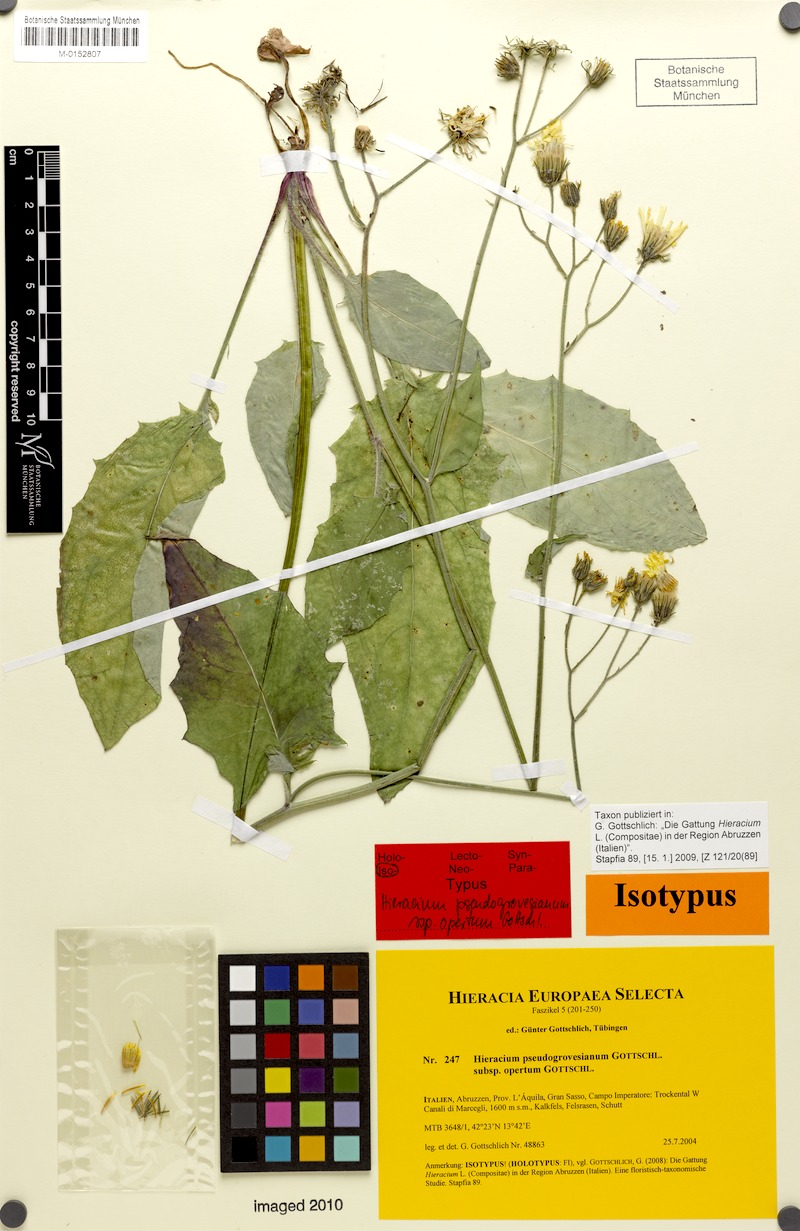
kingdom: Plantae
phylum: Tracheophyta
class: Magnoliopsida
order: Asterales
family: Asteraceae
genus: Hieracium
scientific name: Hieracium pseudogrovesianum
